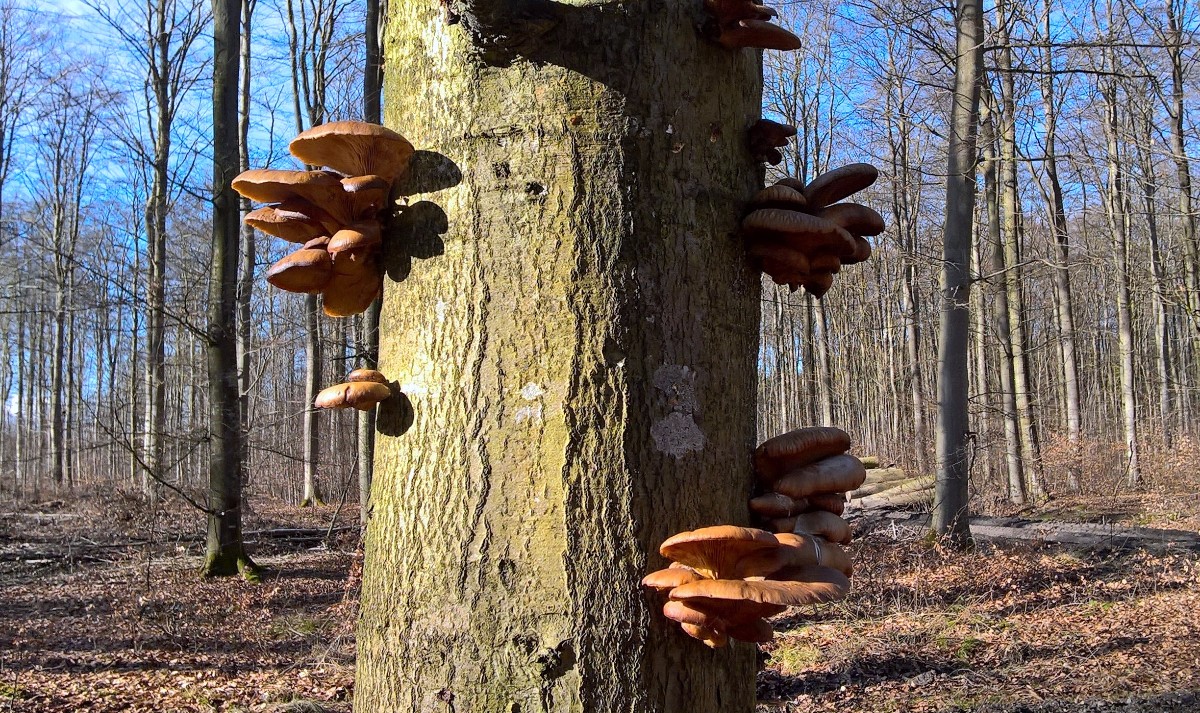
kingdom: Fungi
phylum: Basidiomycota
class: Agaricomycetes
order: Agaricales
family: Pleurotaceae
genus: Pleurotus
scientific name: Pleurotus ostreatus
